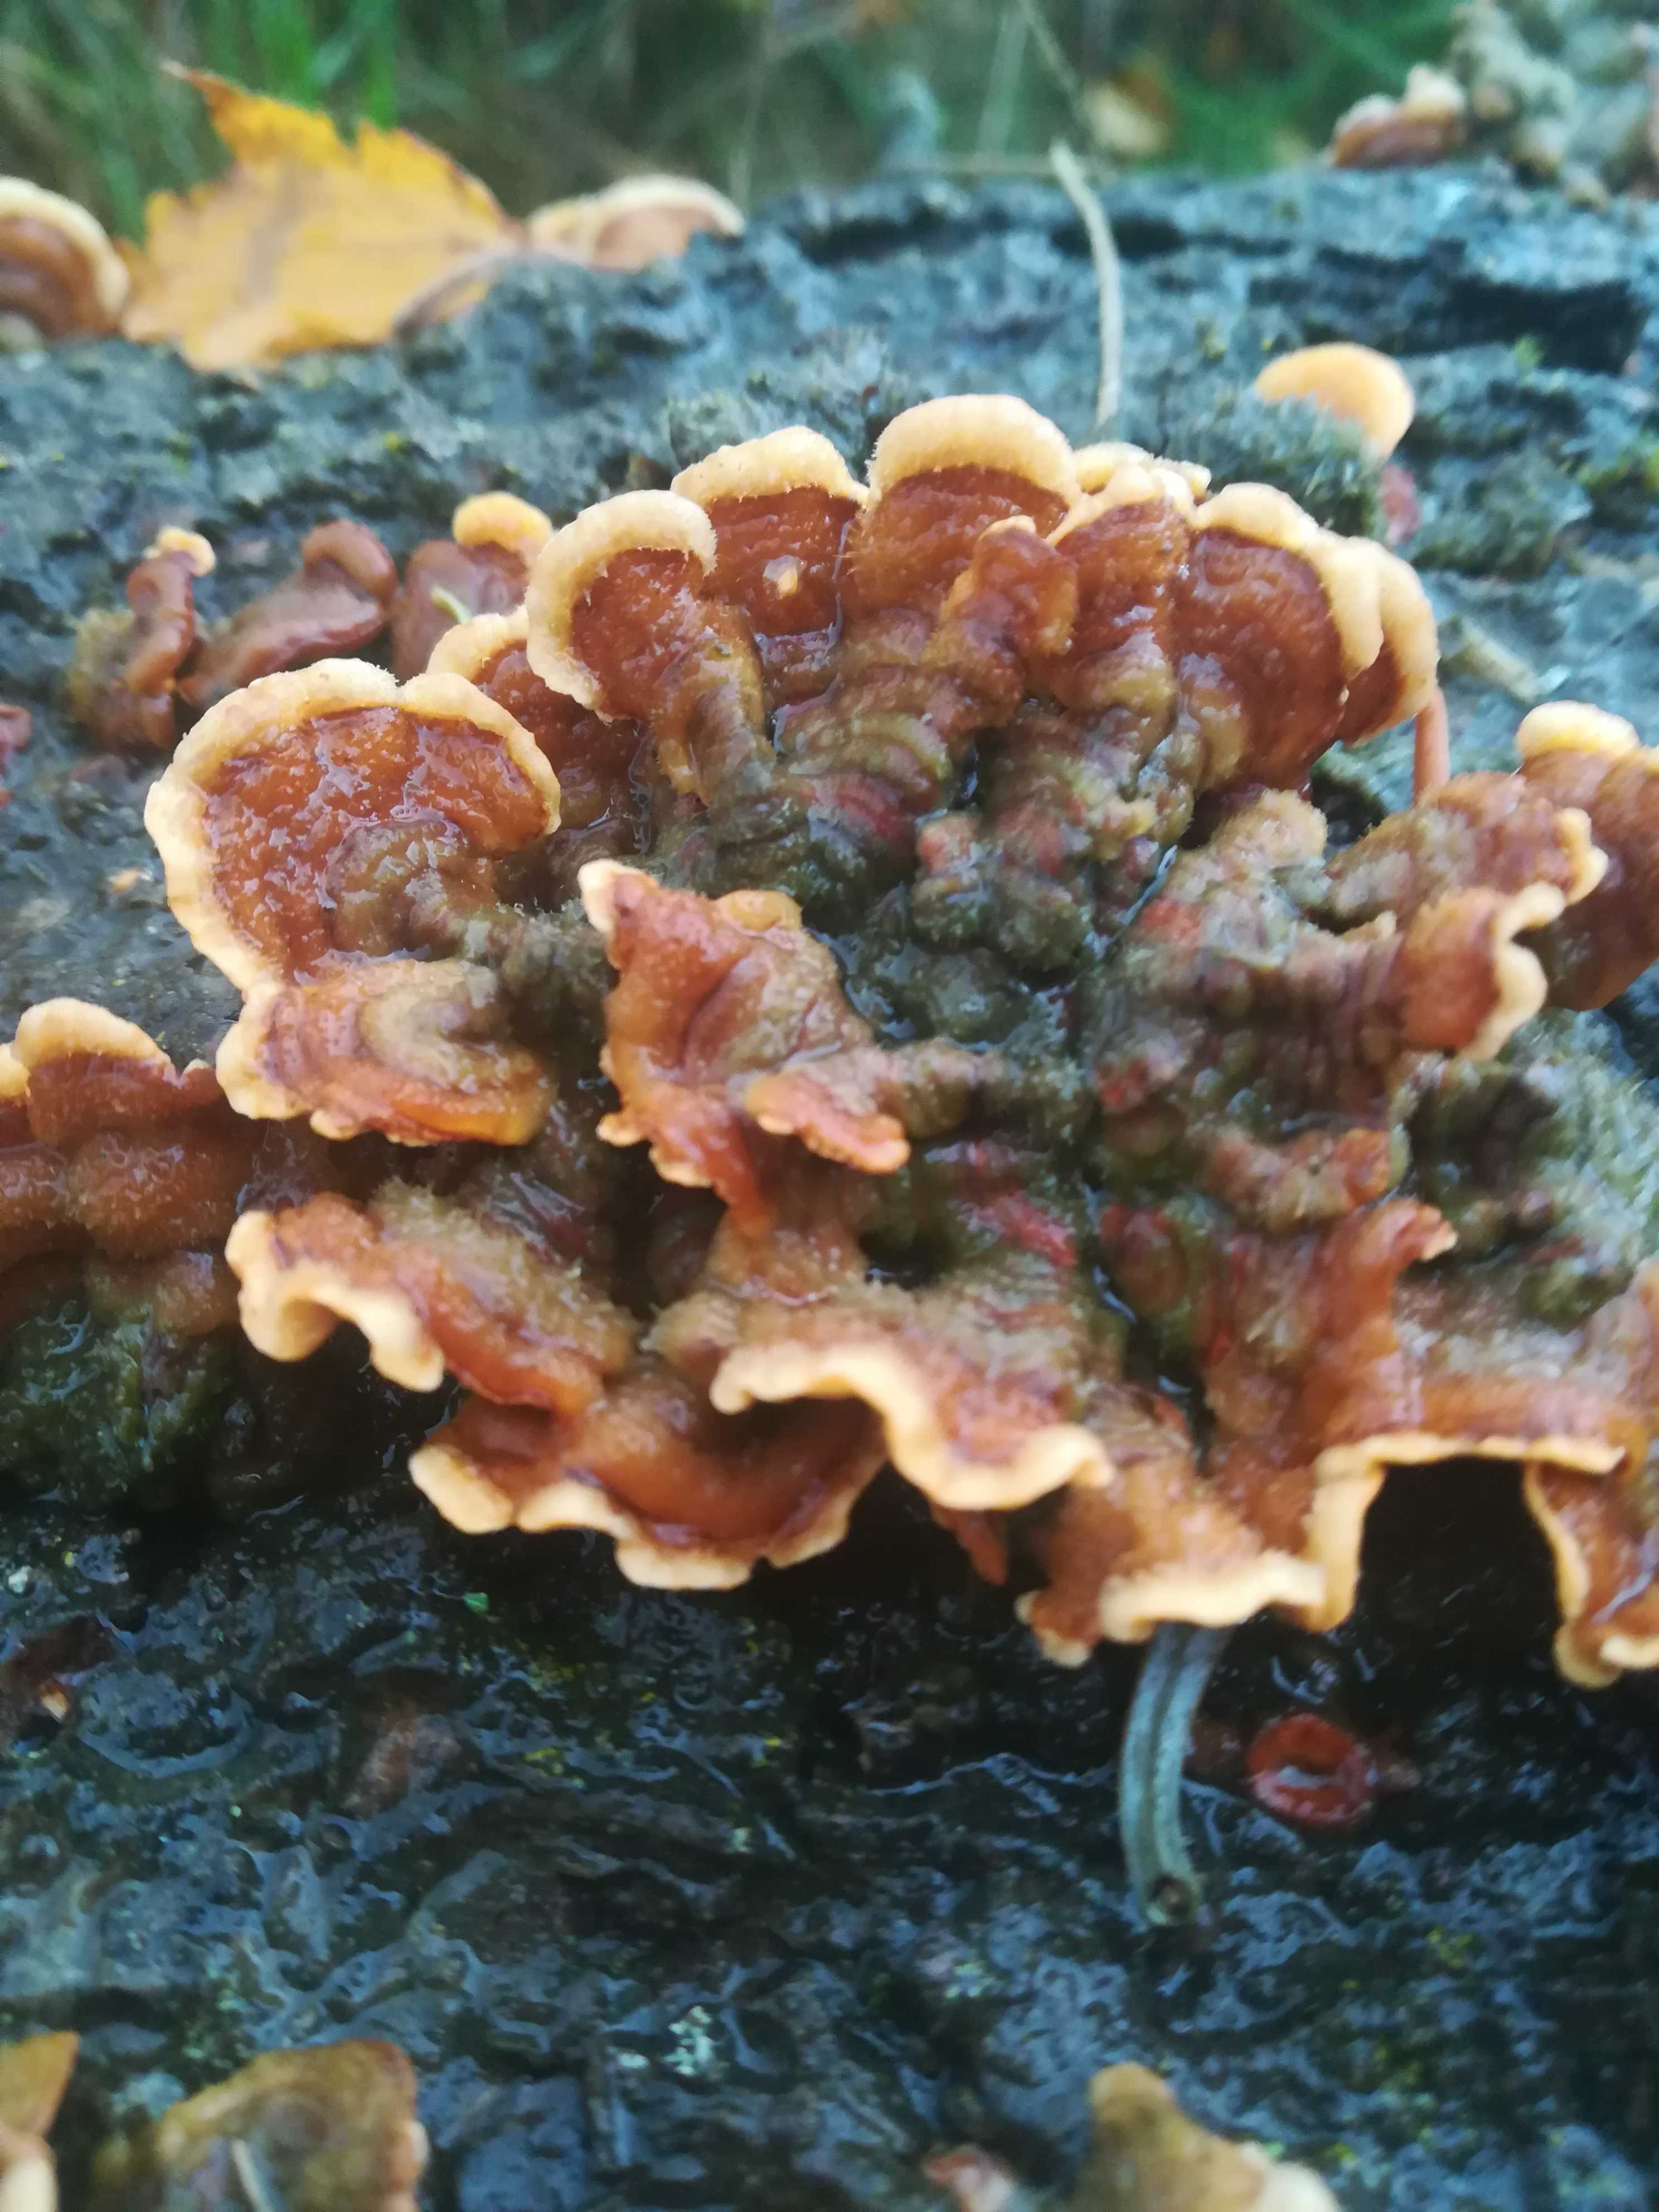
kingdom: Fungi
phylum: Basidiomycota
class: Agaricomycetes
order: Russulales
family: Stereaceae
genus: Stereum
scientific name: Stereum hirsutum
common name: håret lædersvamp
